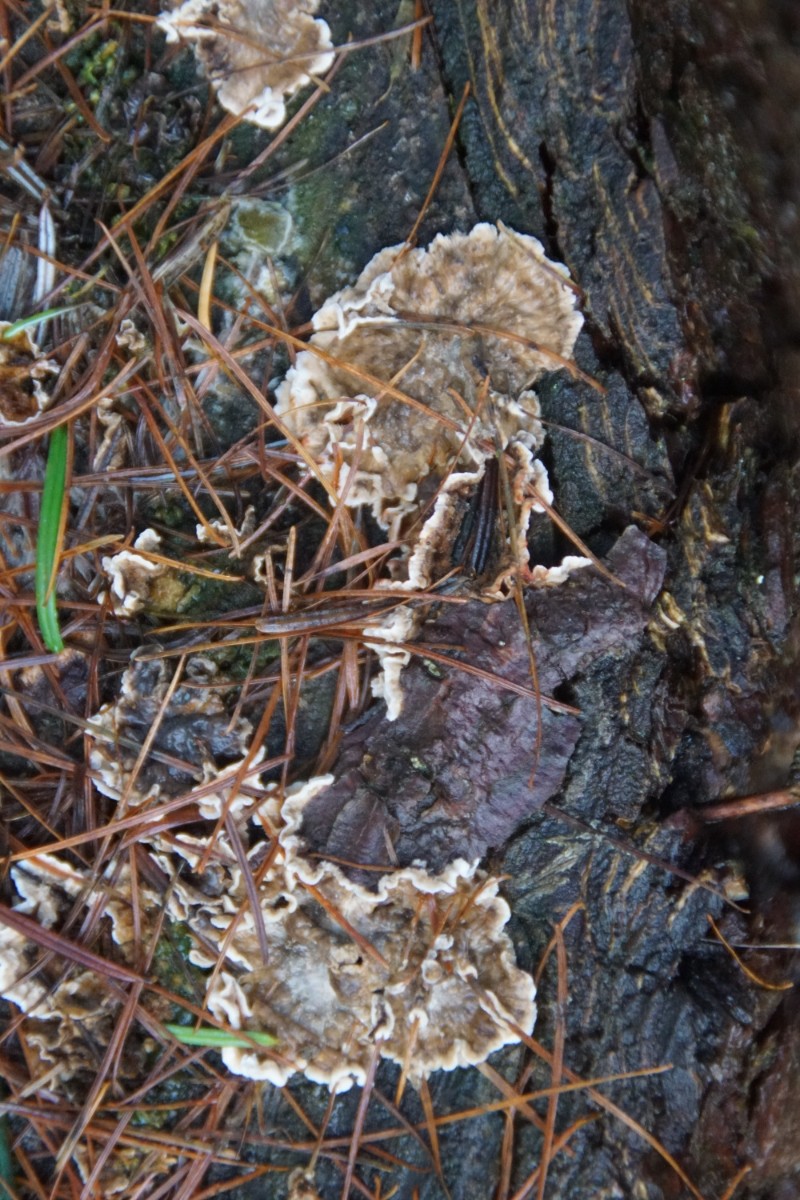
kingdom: Fungi
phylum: Basidiomycota
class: Agaricomycetes
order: Russulales
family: Stereaceae
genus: Stereum
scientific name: Stereum sanguinolentum
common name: blødende lædersvamp
